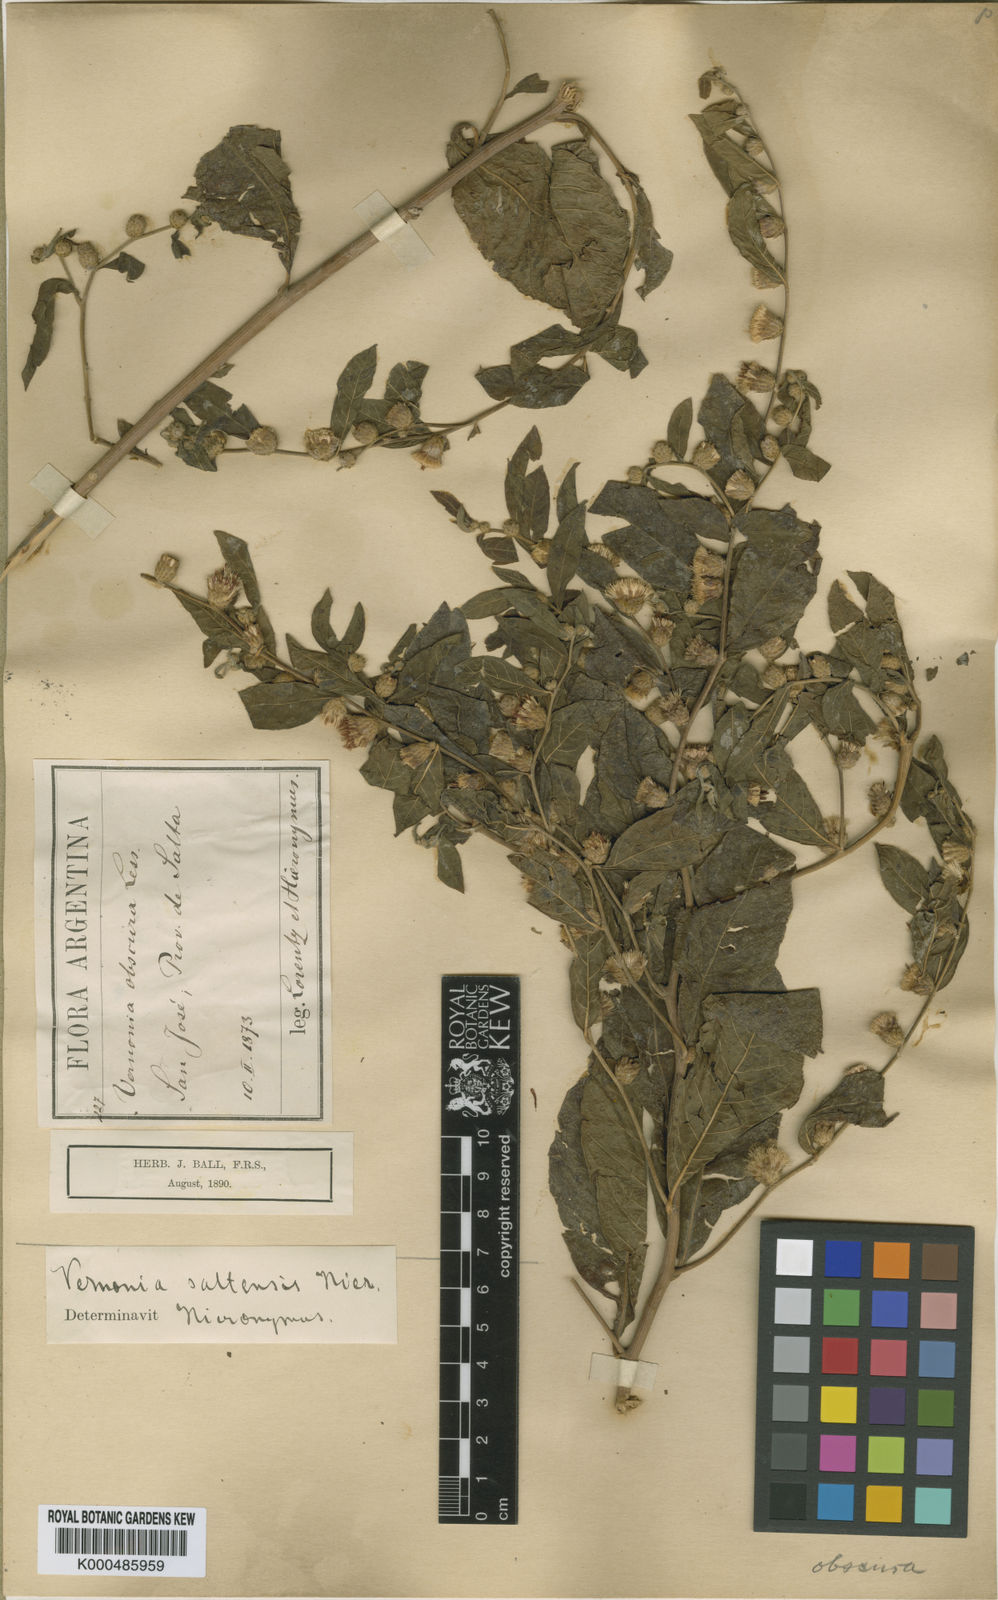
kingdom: Plantae
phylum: Tracheophyta
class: Magnoliopsida
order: Asterales
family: Asteraceae
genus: Lessingianthus
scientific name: Lessingianthus saltensis
